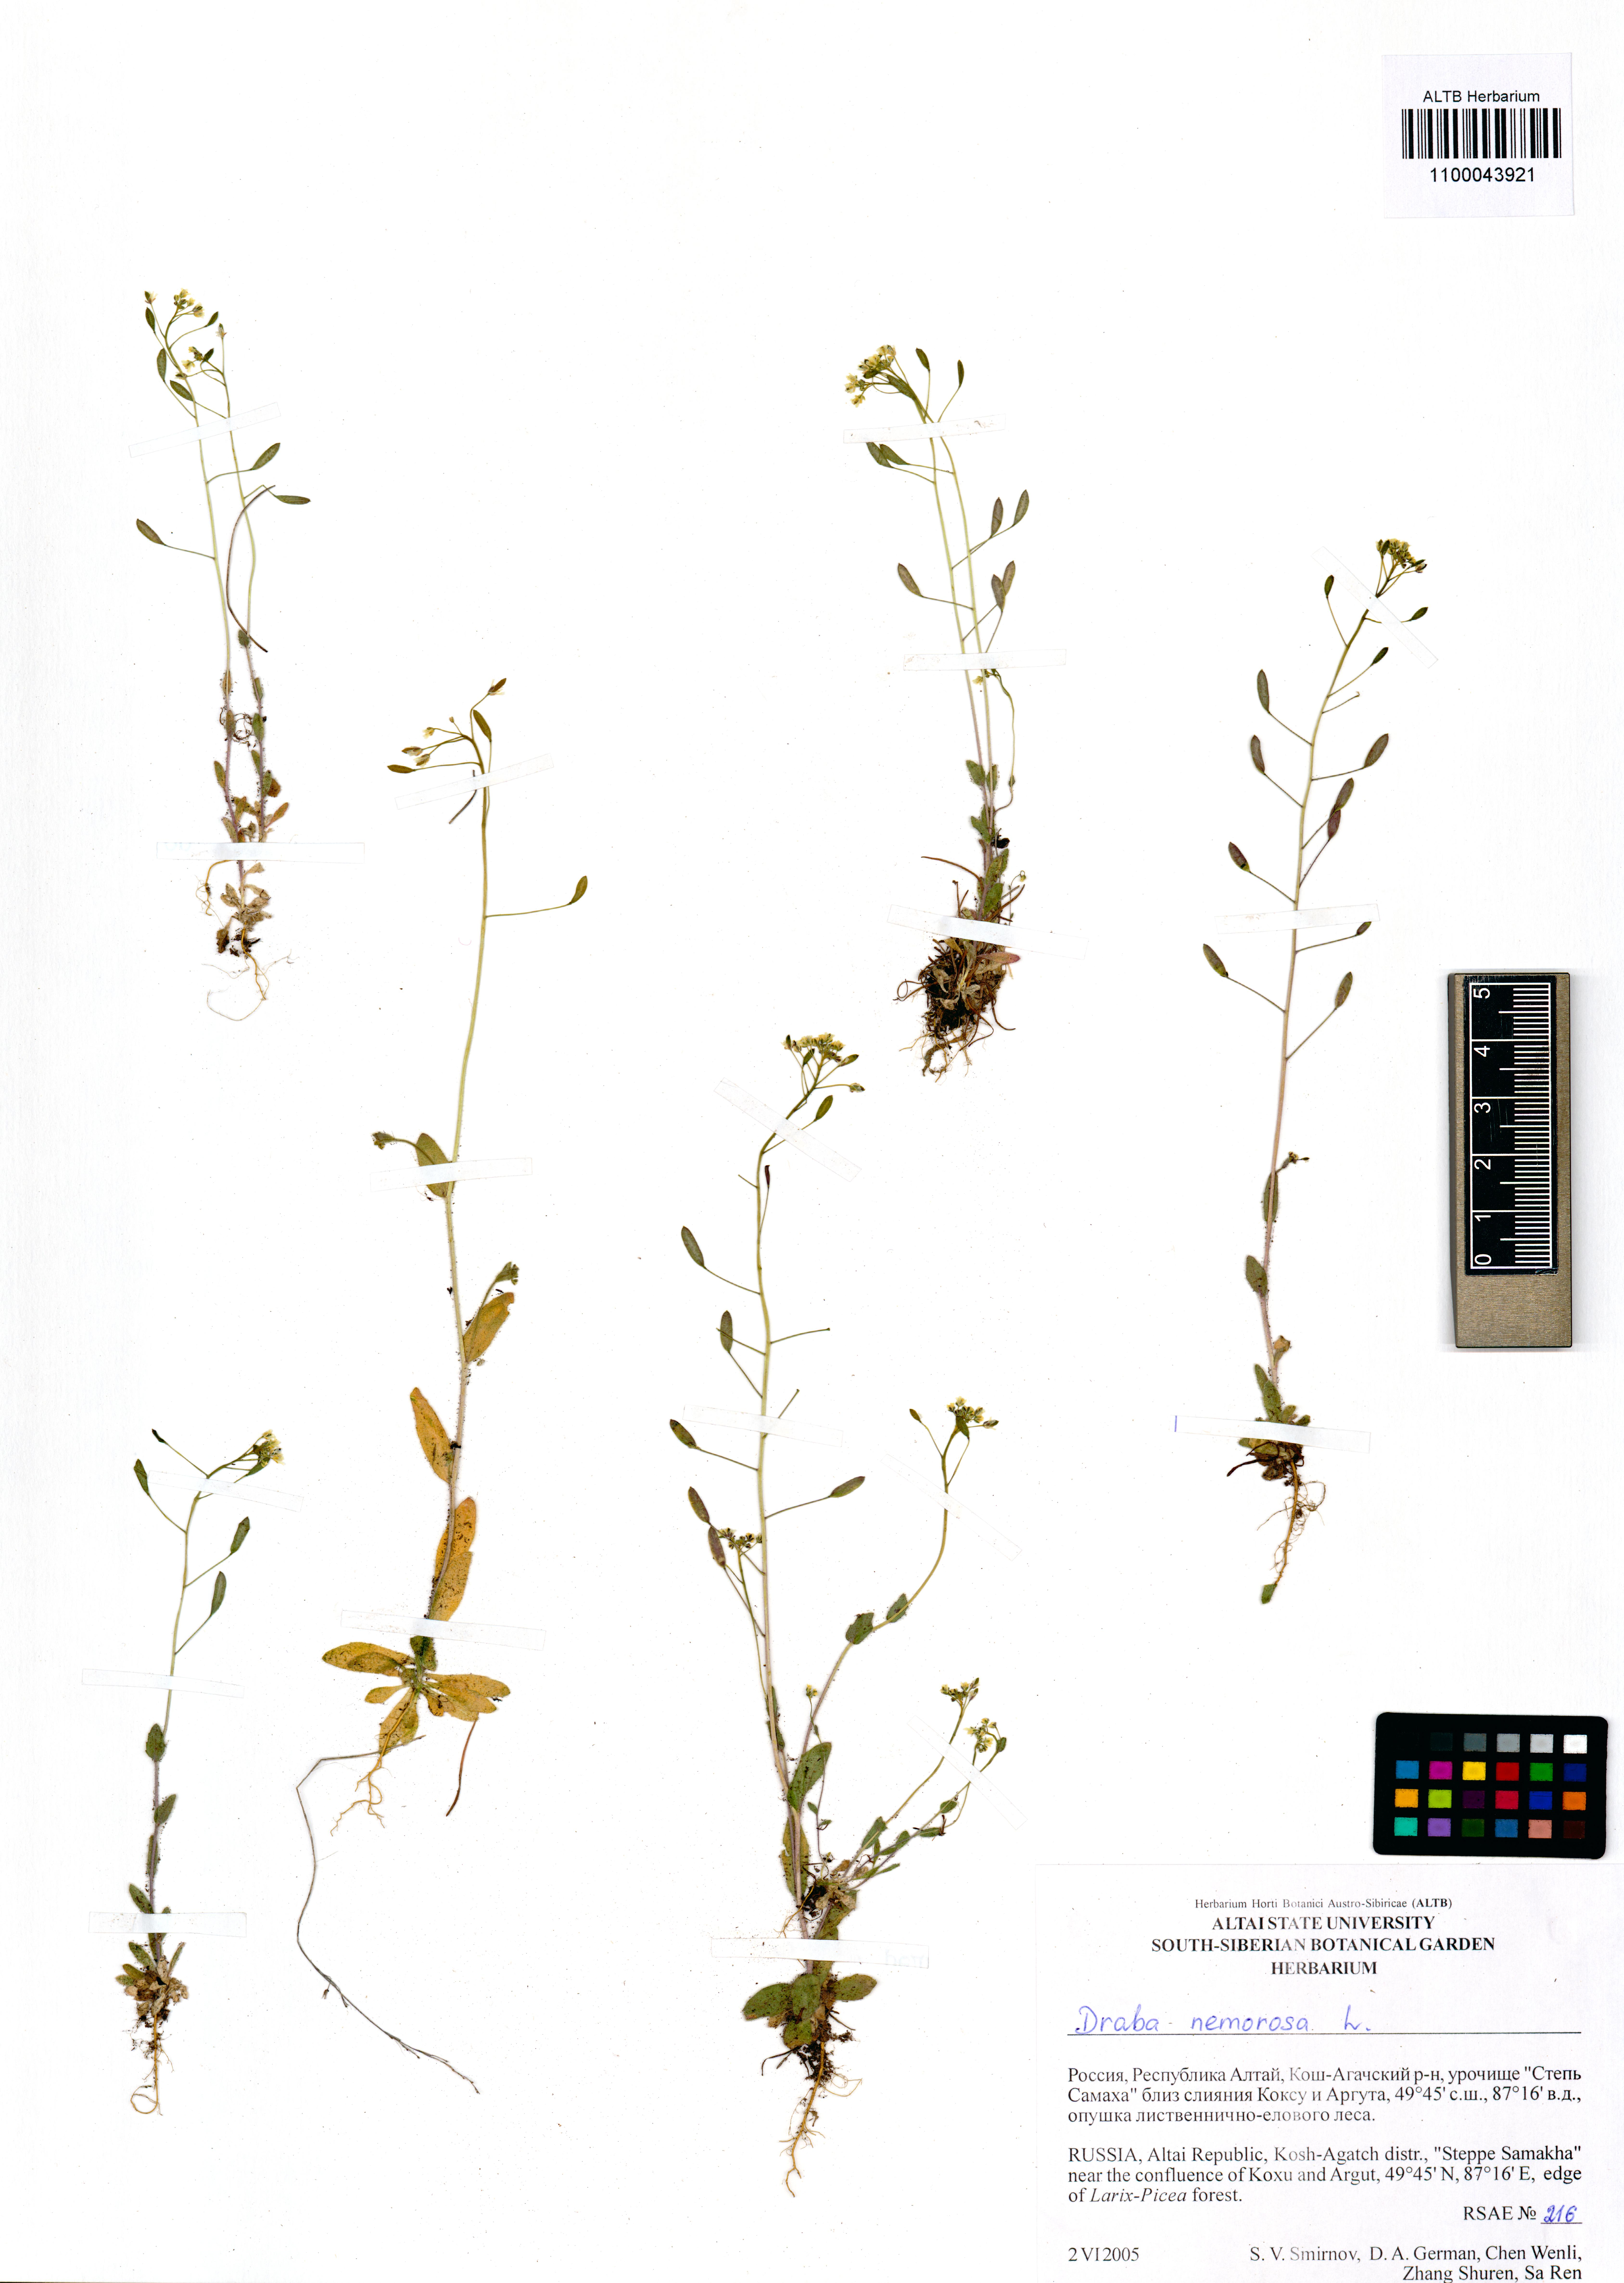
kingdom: Plantae
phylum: Tracheophyta
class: Magnoliopsida
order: Brassicales
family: Brassicaceae
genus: Draba
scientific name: Draba nemorosa
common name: Wood whitlow-grass
